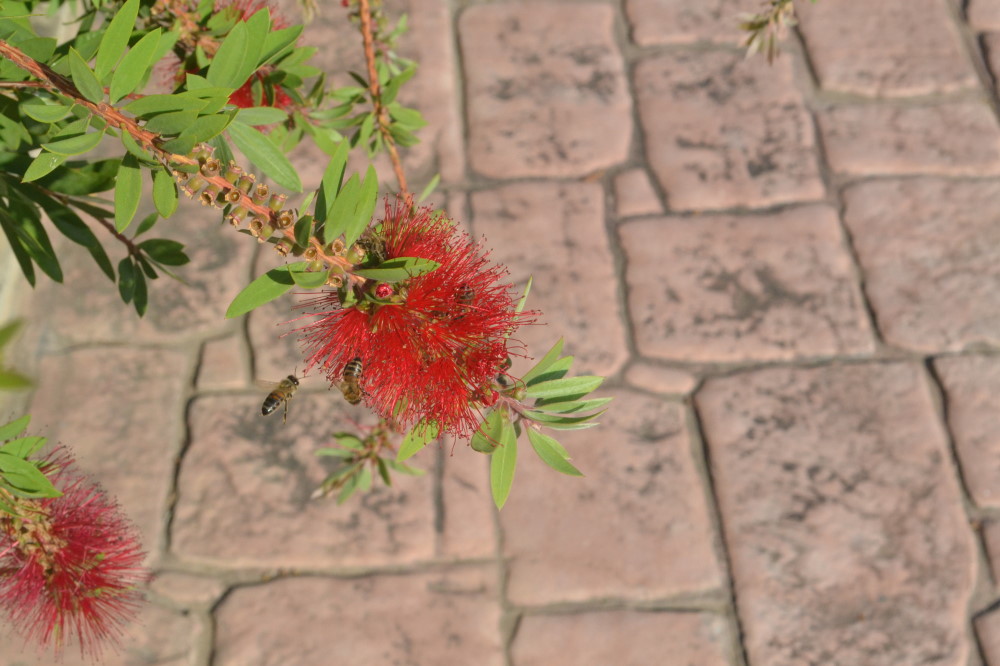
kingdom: Plantae
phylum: Tracheophyta
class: Magnoliopsida
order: Myrtales
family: Myrtaceae
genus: Callistemon
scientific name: Callistemon citrinus
